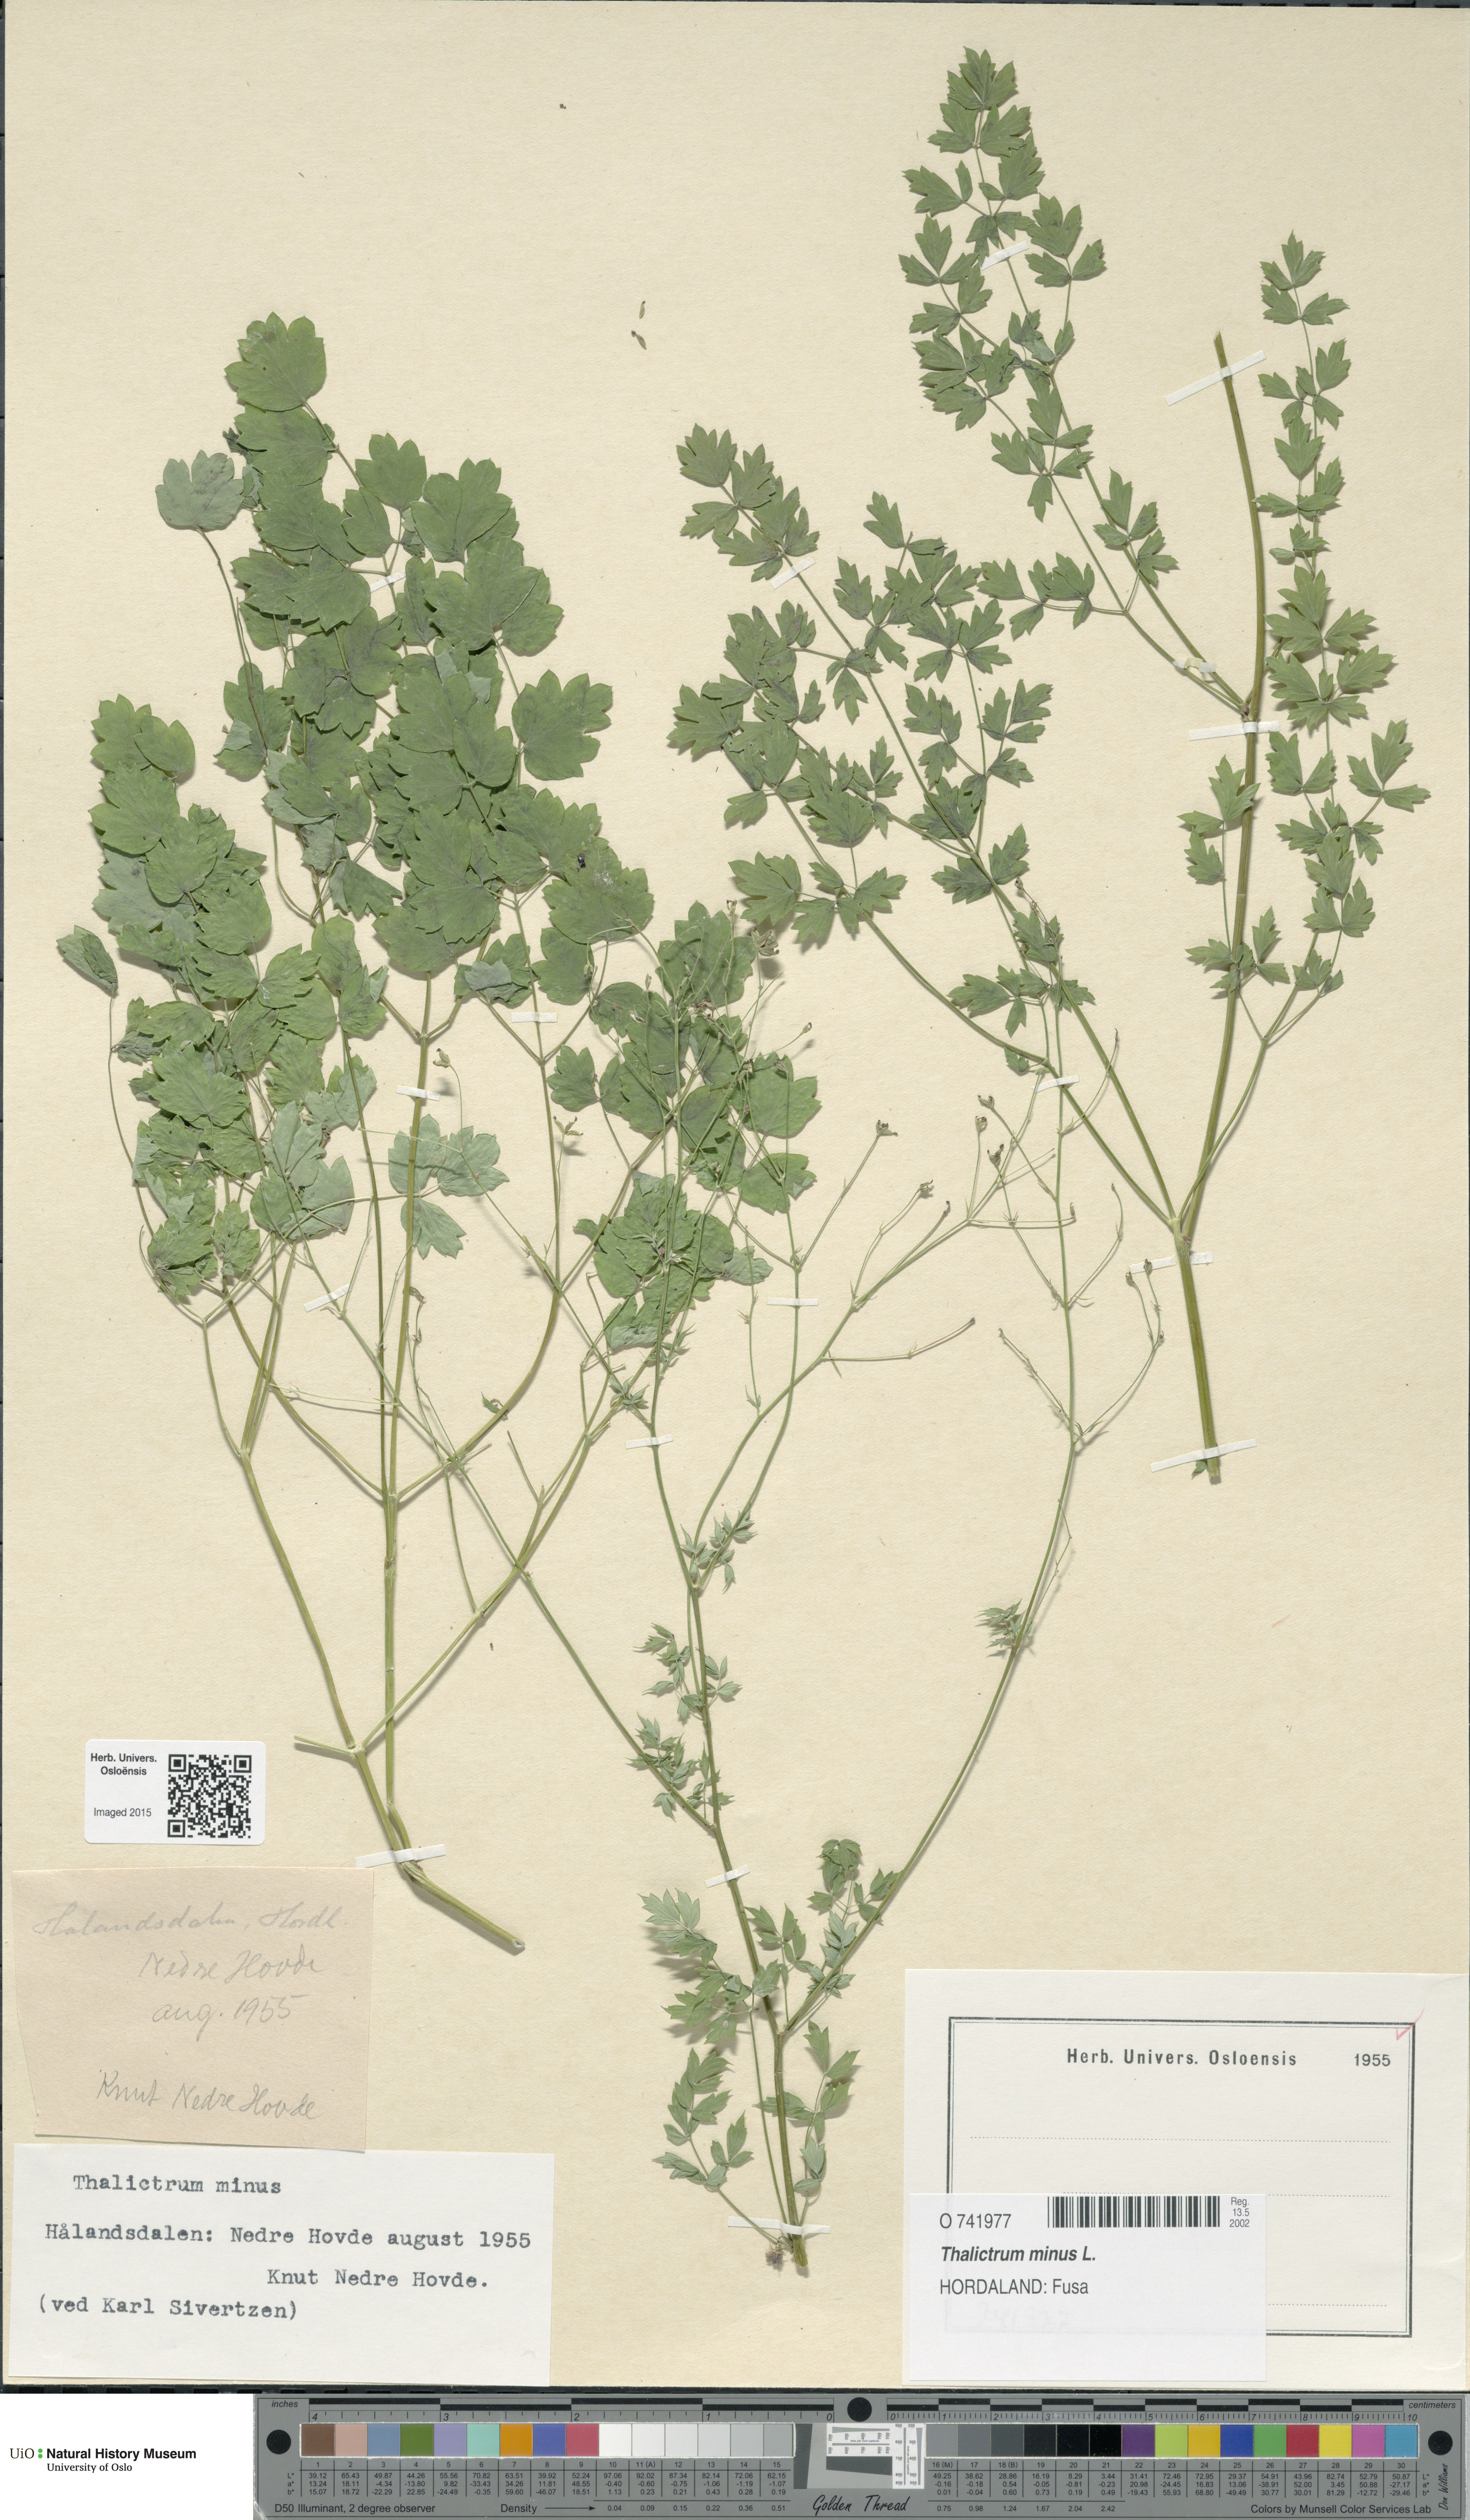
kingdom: Plantae
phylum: Tracheophyta
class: Magnoliopsida
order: Ranunculales
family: Ranunculaceae
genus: Thalictrum
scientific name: Thalictrum minus
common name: Lesser meadow-rue
